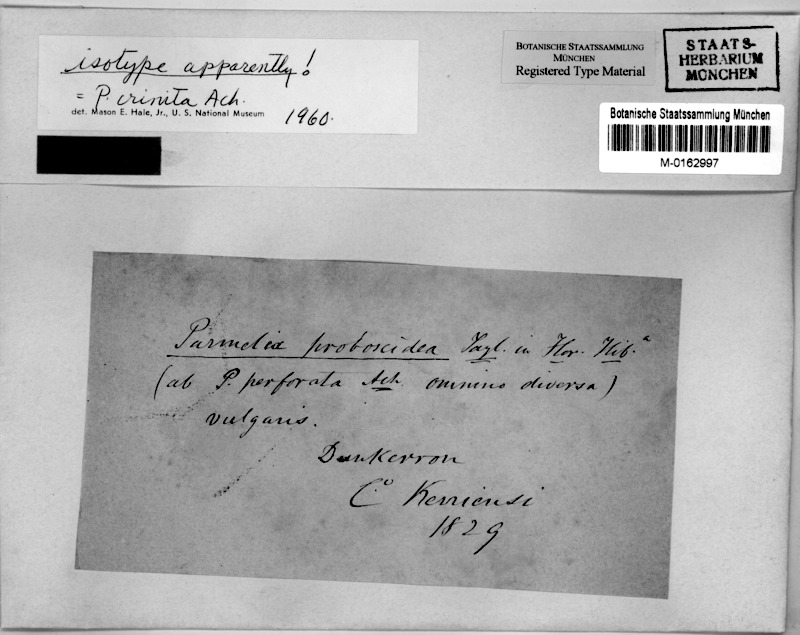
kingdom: Fungi
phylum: Ascomycota
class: Lecanoromycetes
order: Lecanorales
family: Parmeliaceae
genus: Parmotrema
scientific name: Parmotrema crinitum
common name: Salted ruffle lichen
